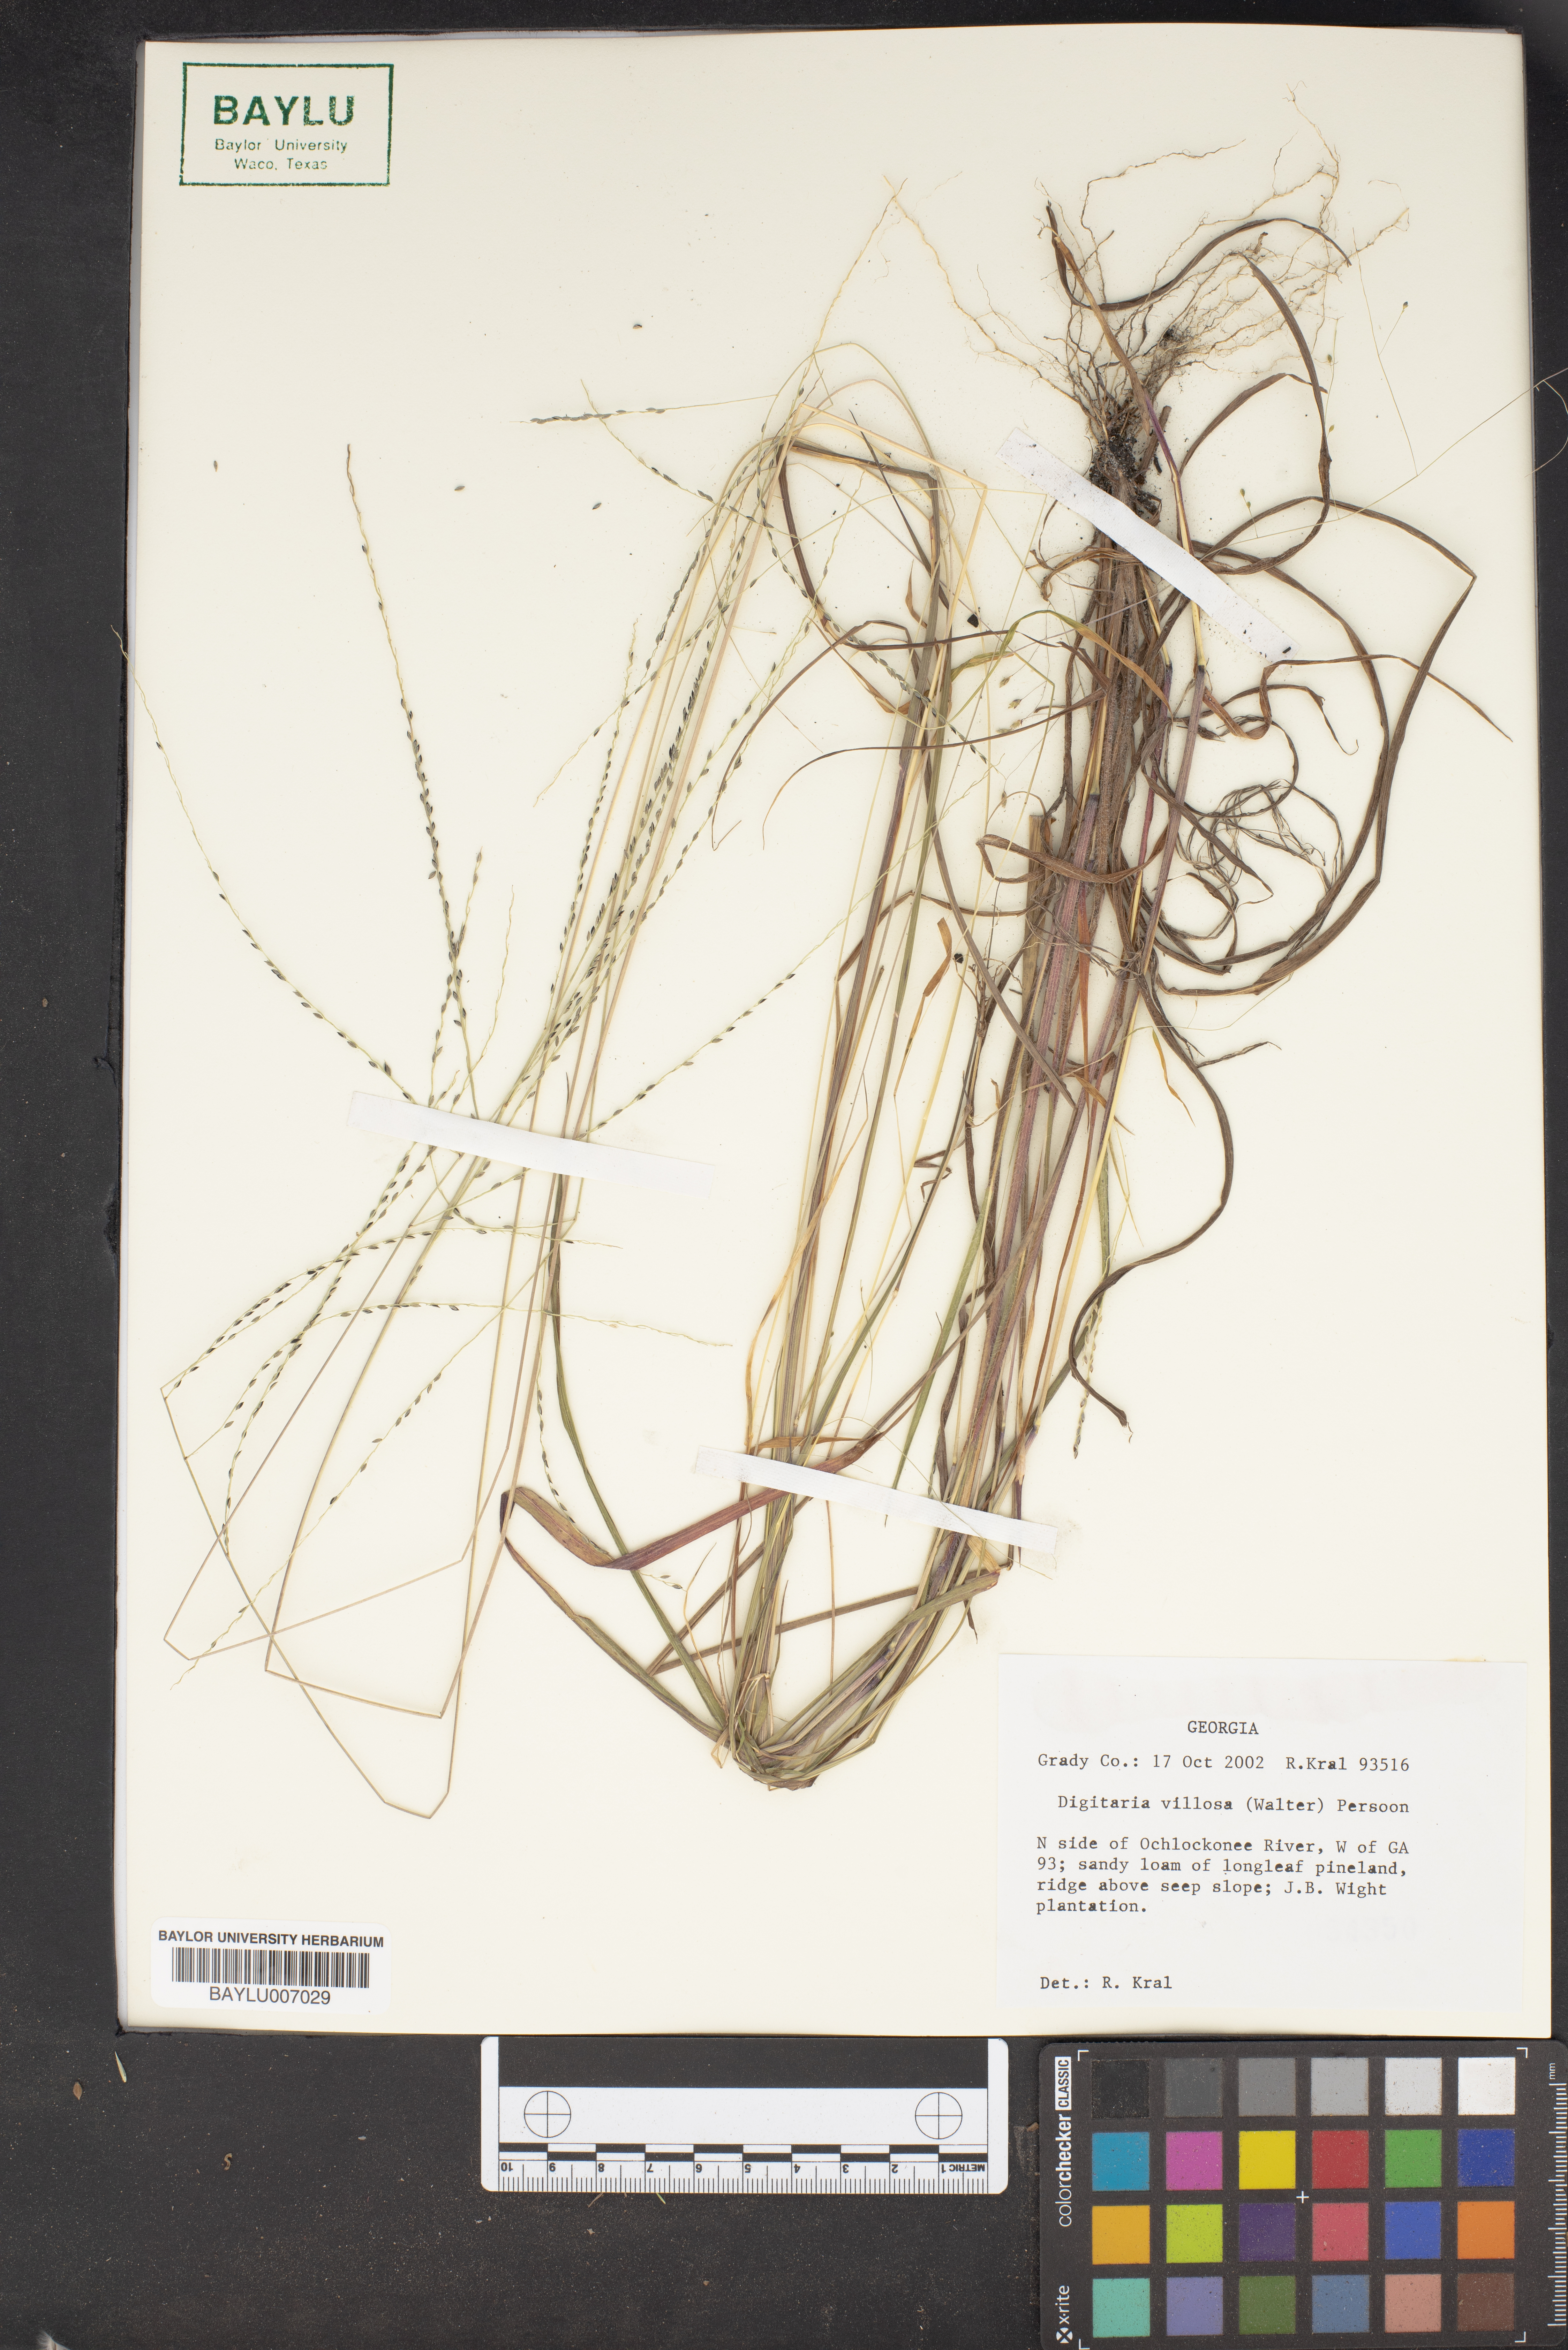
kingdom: Plantae
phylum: Tracheophyta
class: Liliopsida
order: Poales
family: Poaceae
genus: Digitaria
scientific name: Digitaria villosa
